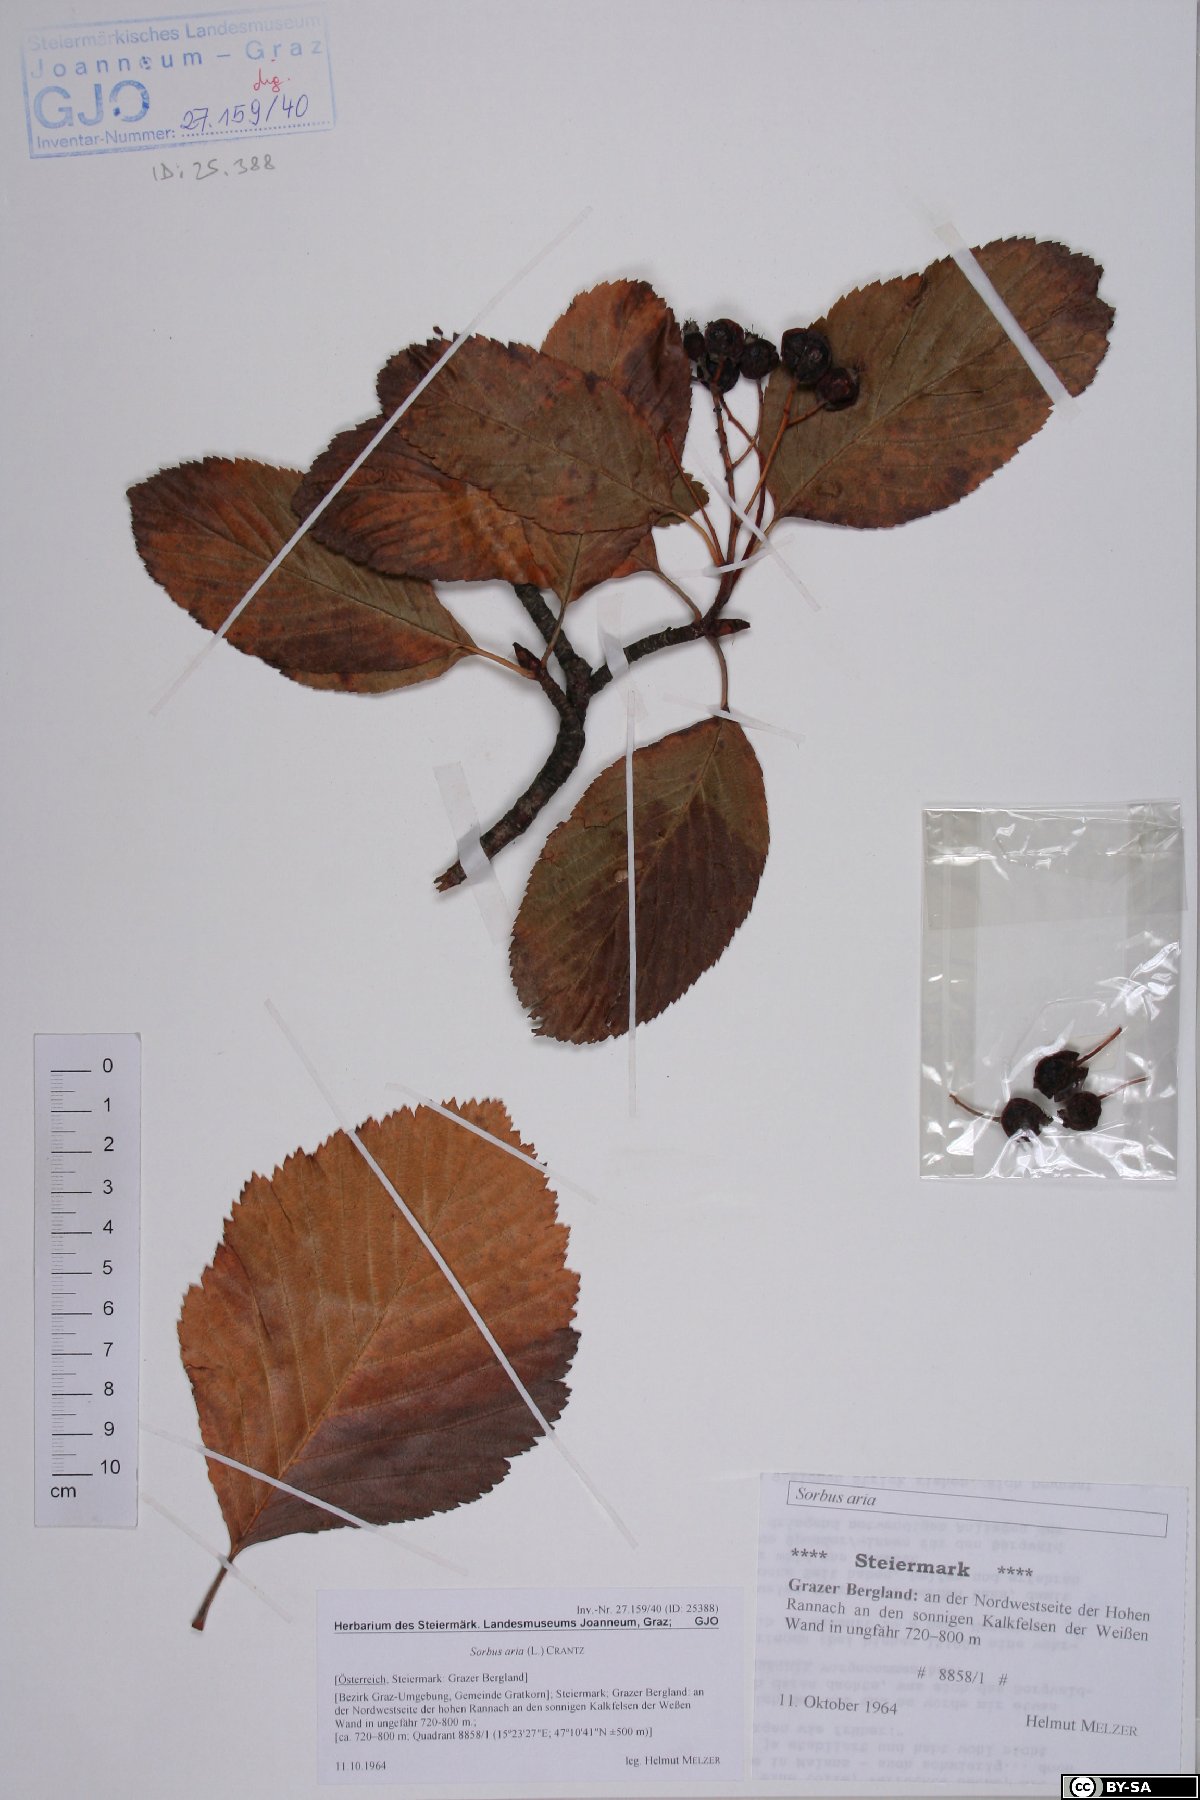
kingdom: Plantae
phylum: Tracheophyta
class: Magnoliopsida
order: Rosales
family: Rosaceae
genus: Aria
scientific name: Aria edulis
